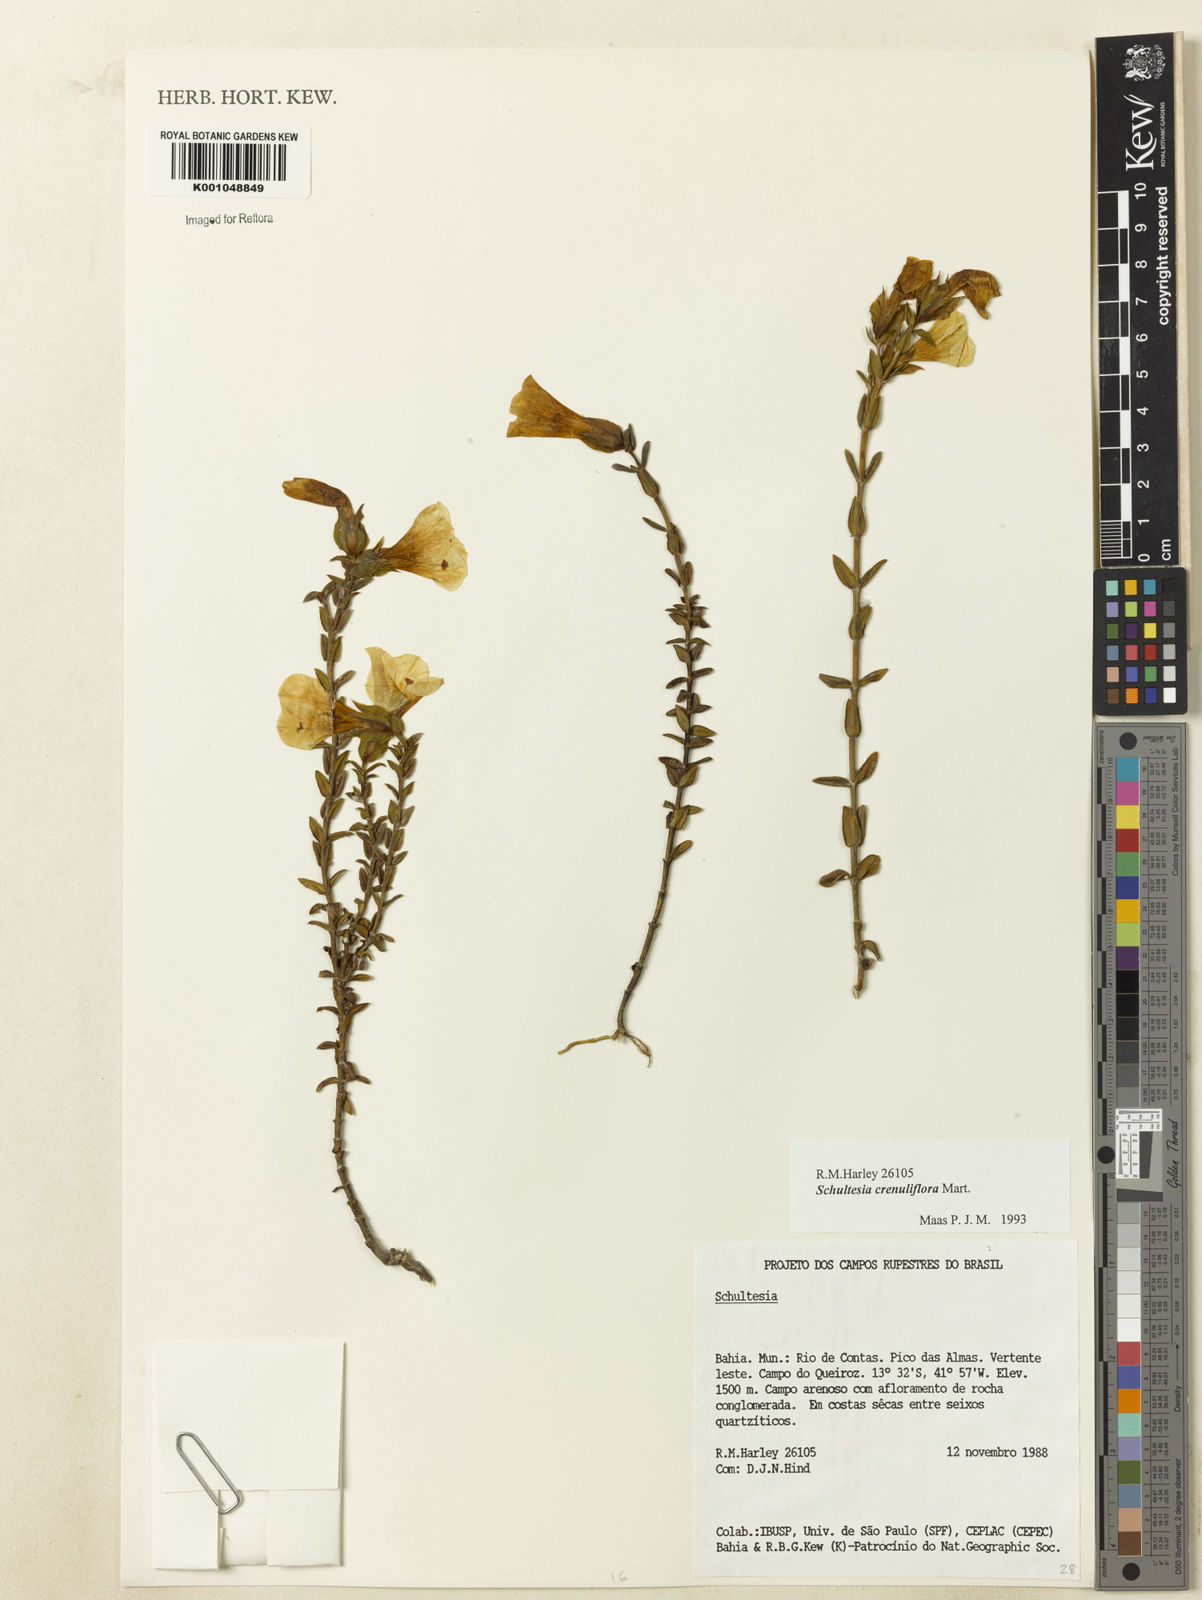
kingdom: Plantae
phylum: Tracheophyta
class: Magnoliopsida
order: Gentianales
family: Gentianaceae
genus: Schultesia
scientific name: Schultesia crenuliflora
